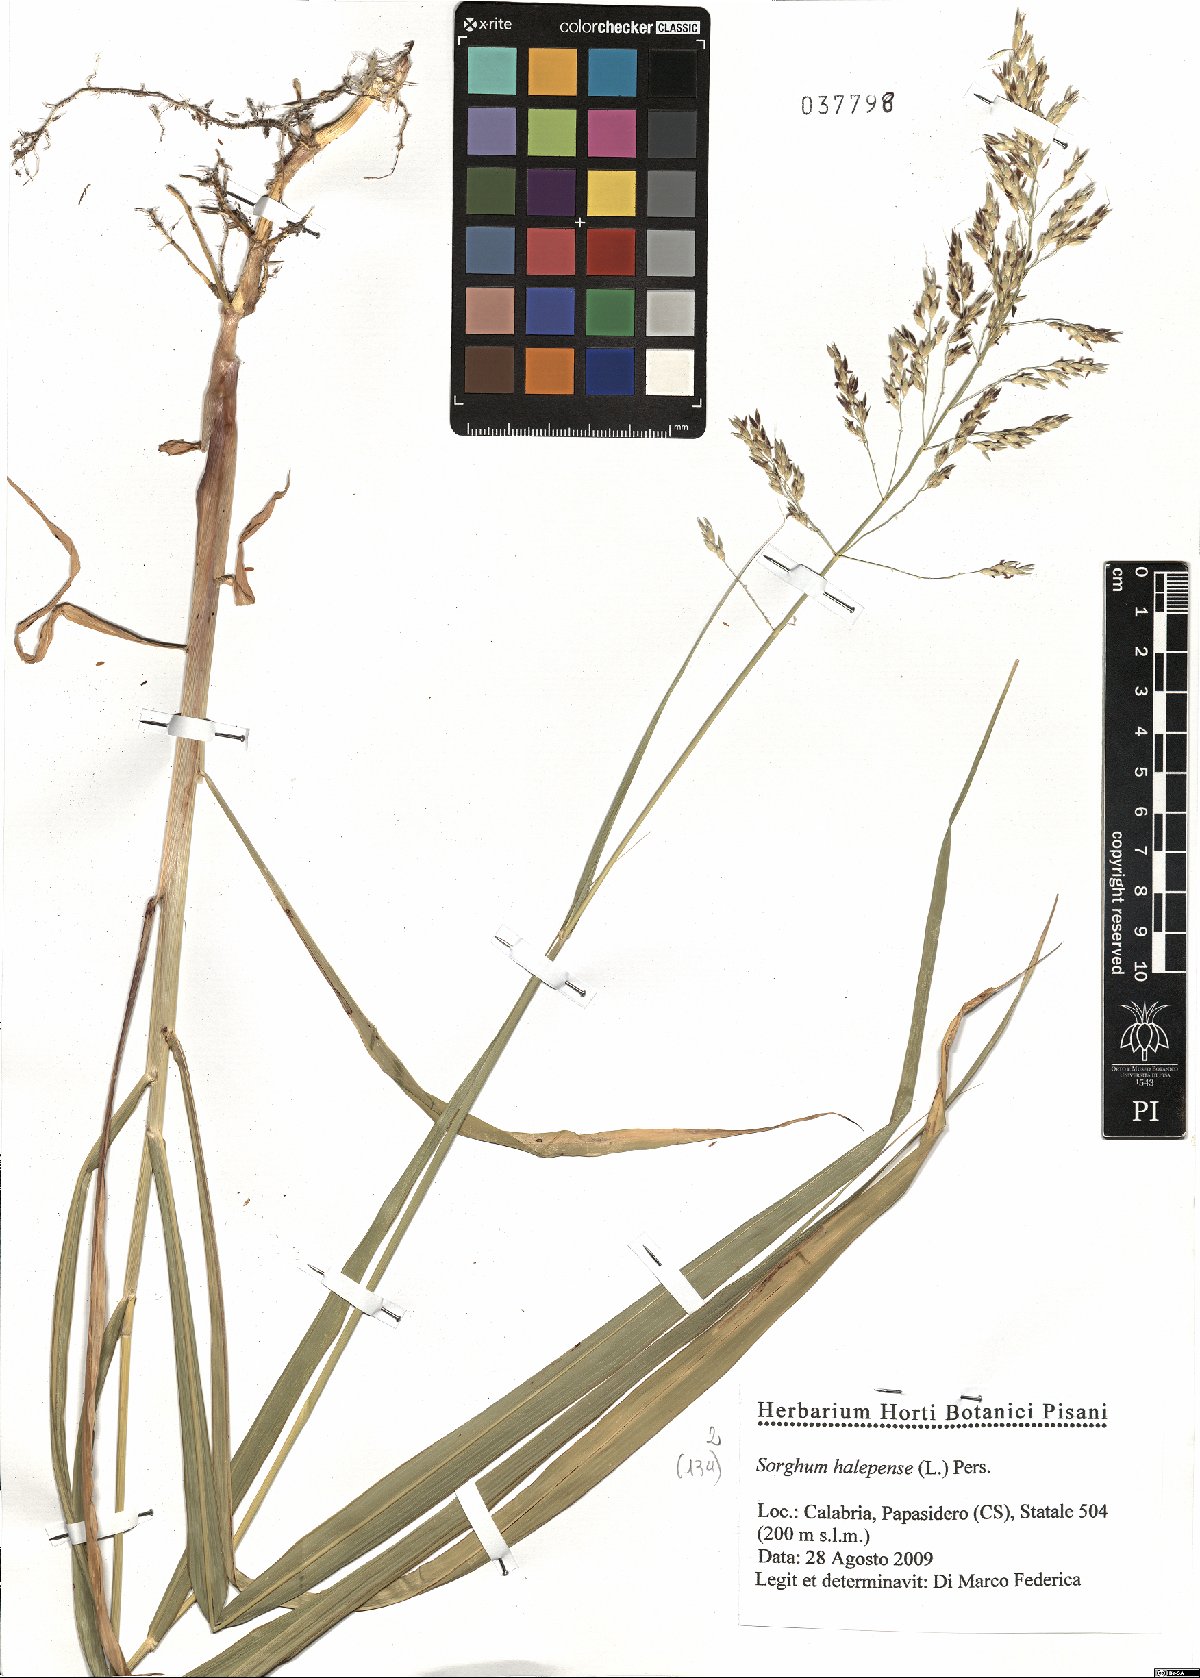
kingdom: Plantae
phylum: Tracheophyta
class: Liliopsida
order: Poales
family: Poaceae
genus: Sorghum
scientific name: Sorghum halepense
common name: Johnson-grass
